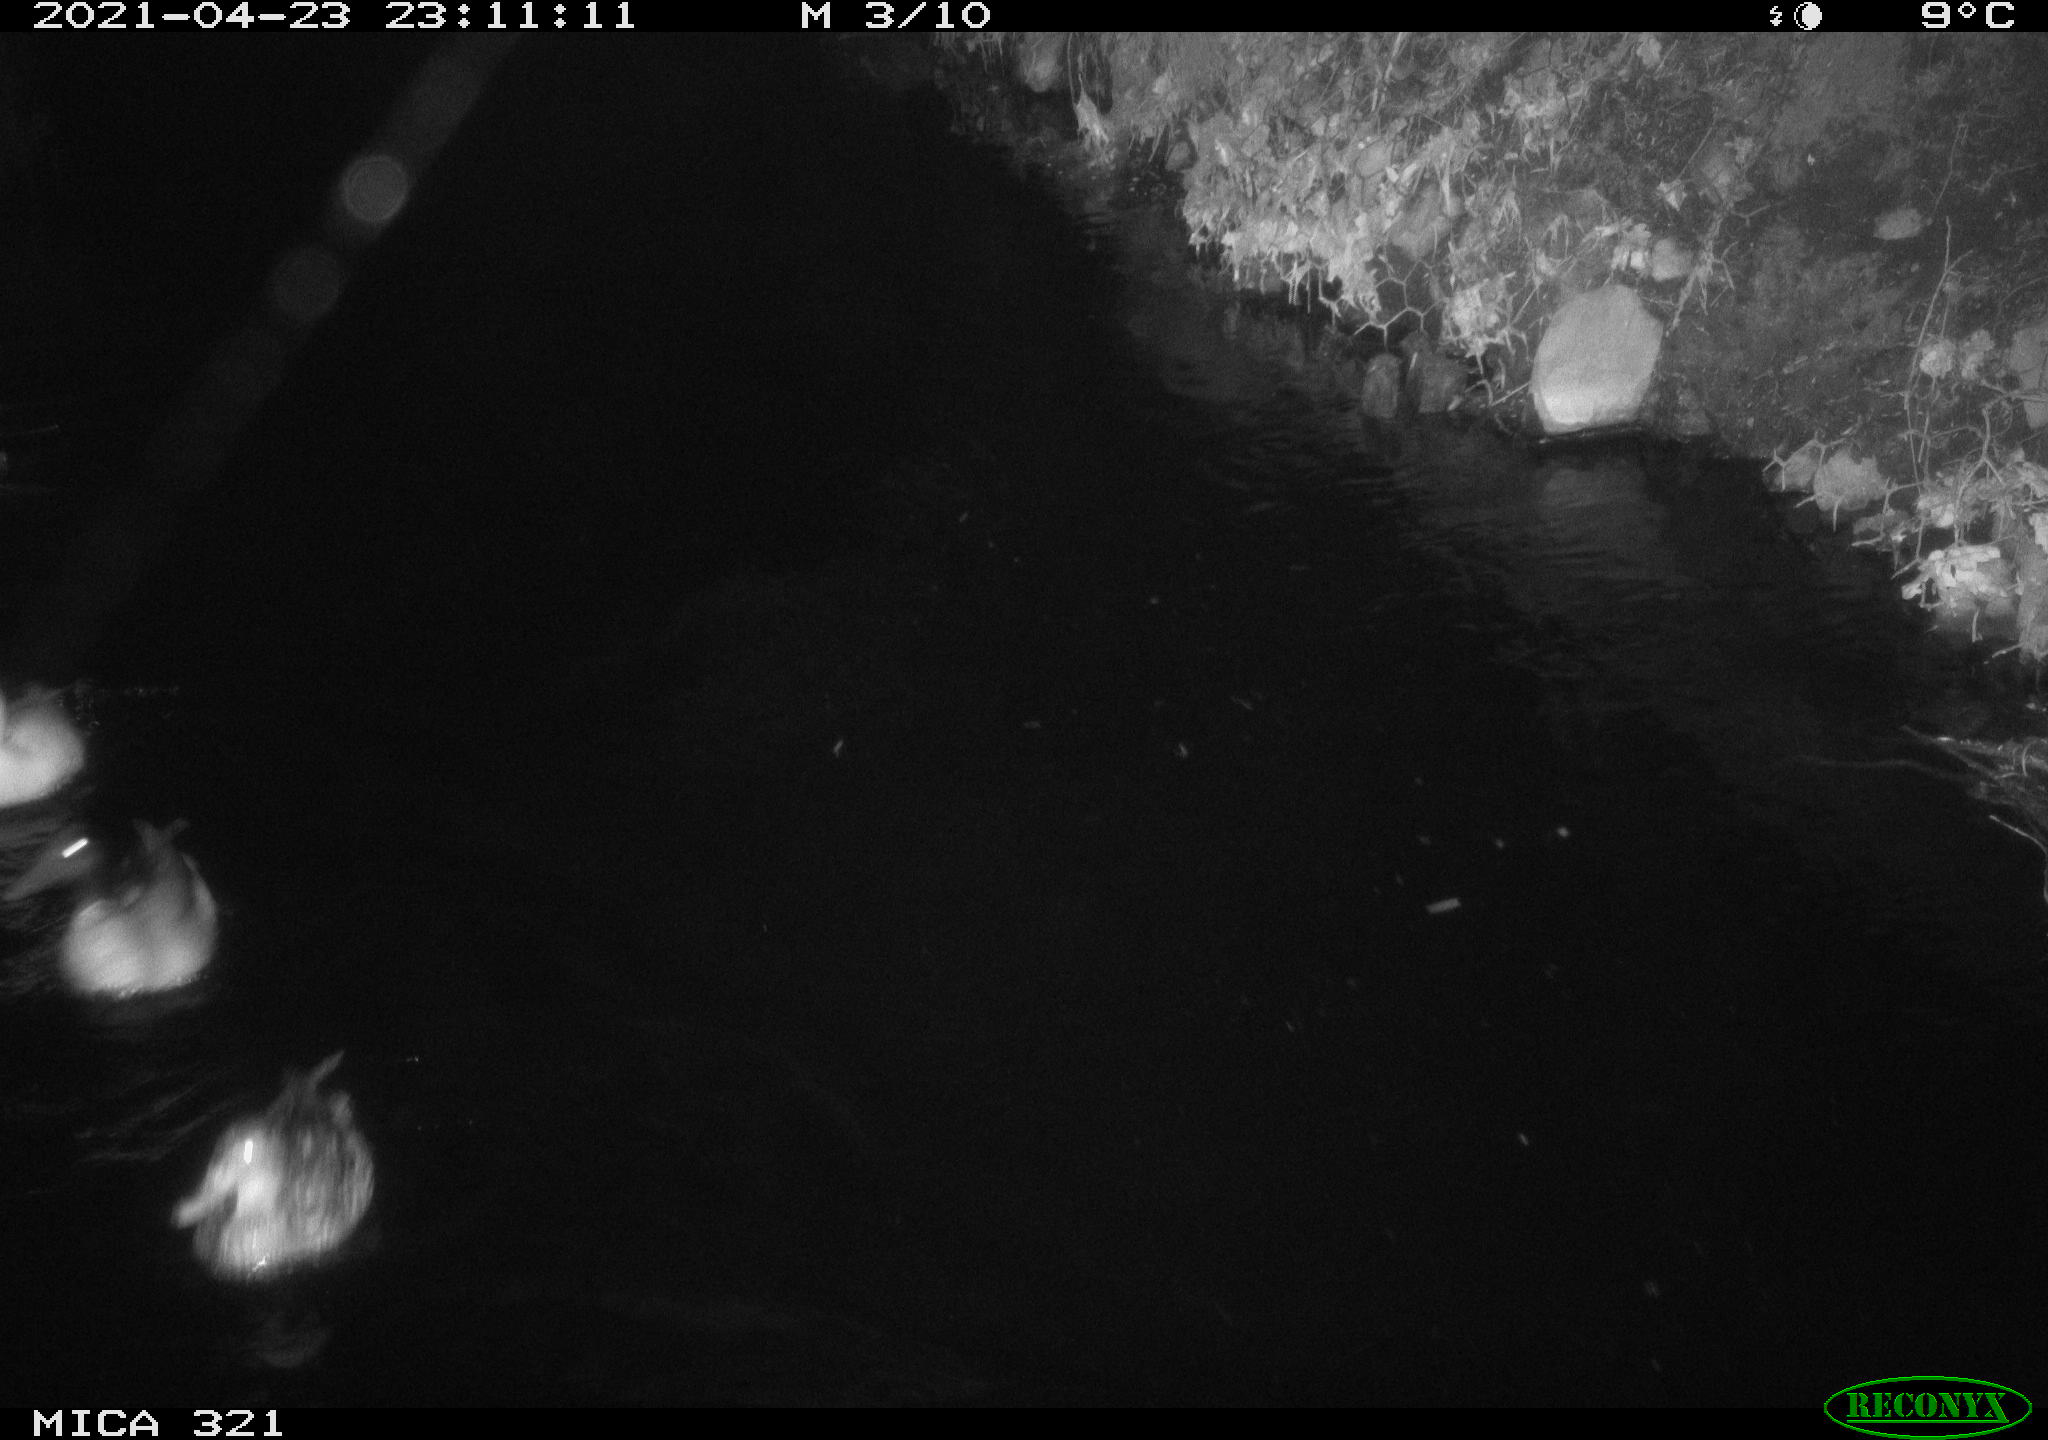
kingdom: Animalia
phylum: Chordata
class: Aves
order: Anseriformes
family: Anatidae
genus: Anas
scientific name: Anas platyrhynchos
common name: Mallard
